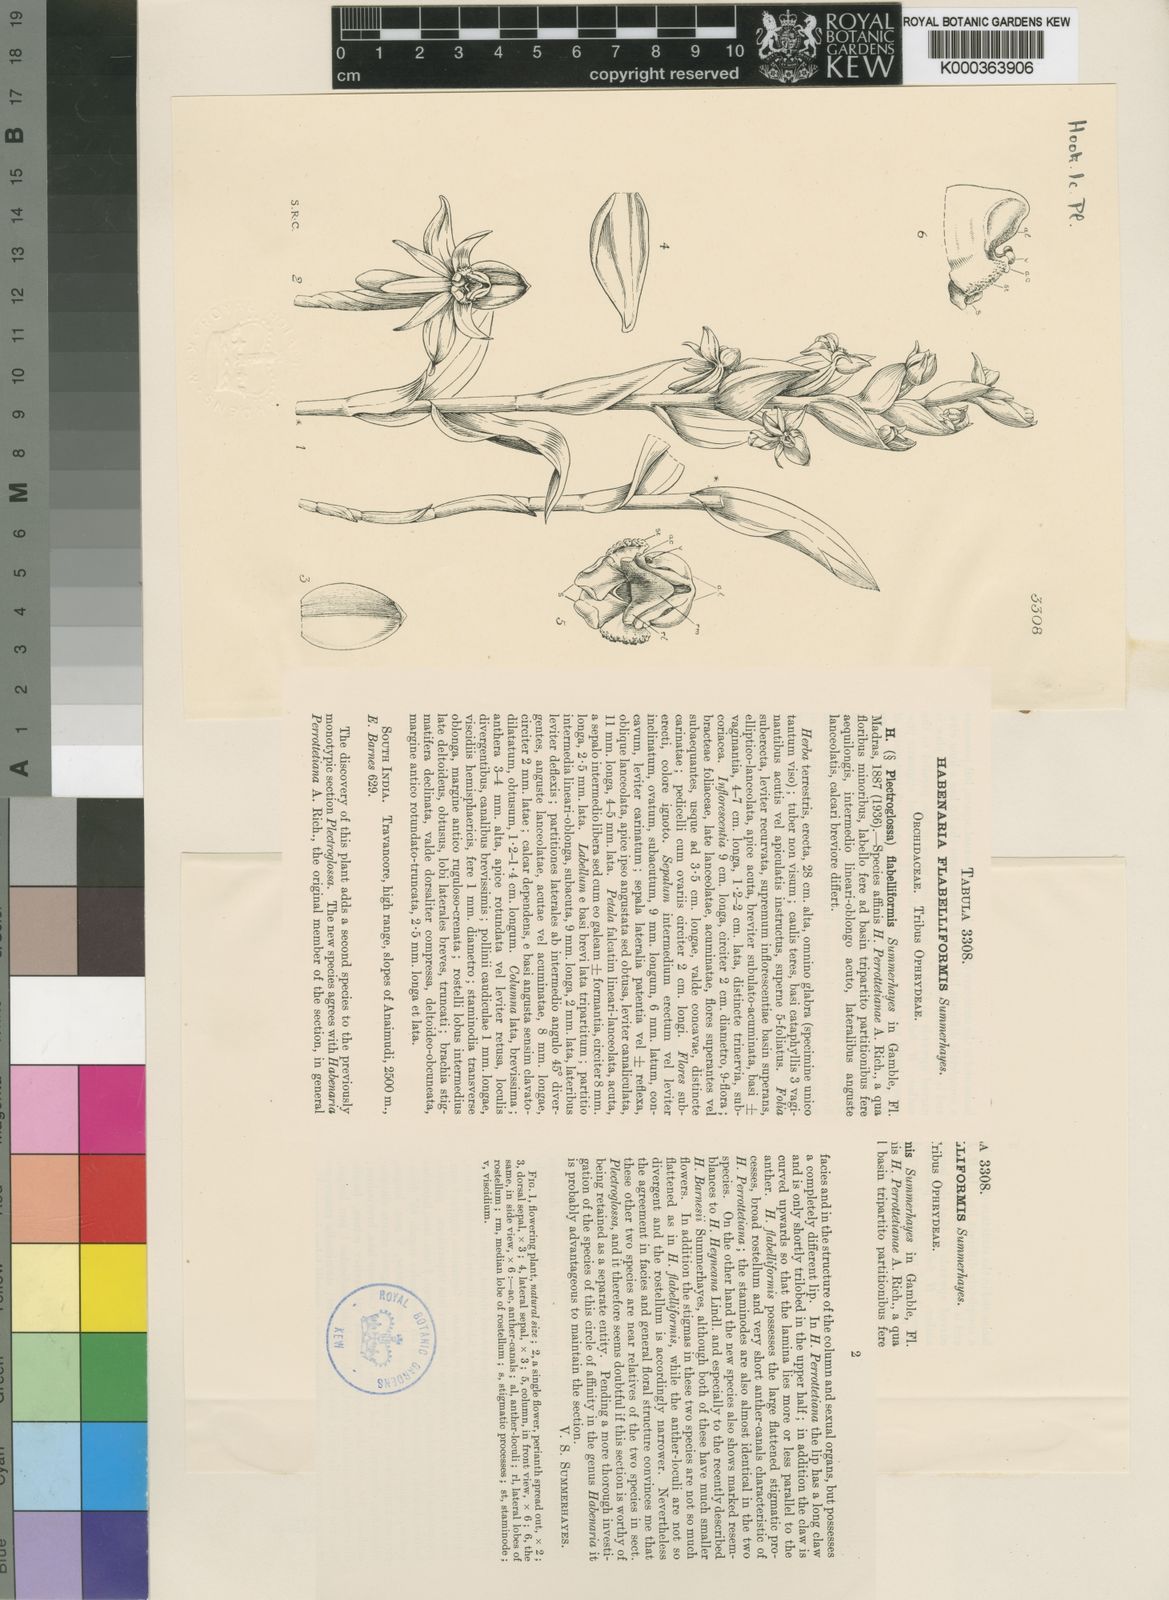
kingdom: Plantae
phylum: Tracheophyta
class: Liliopsida
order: Asparagales
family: Orchidaceae
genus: Habenaria
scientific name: Habenaria flabelliformis
